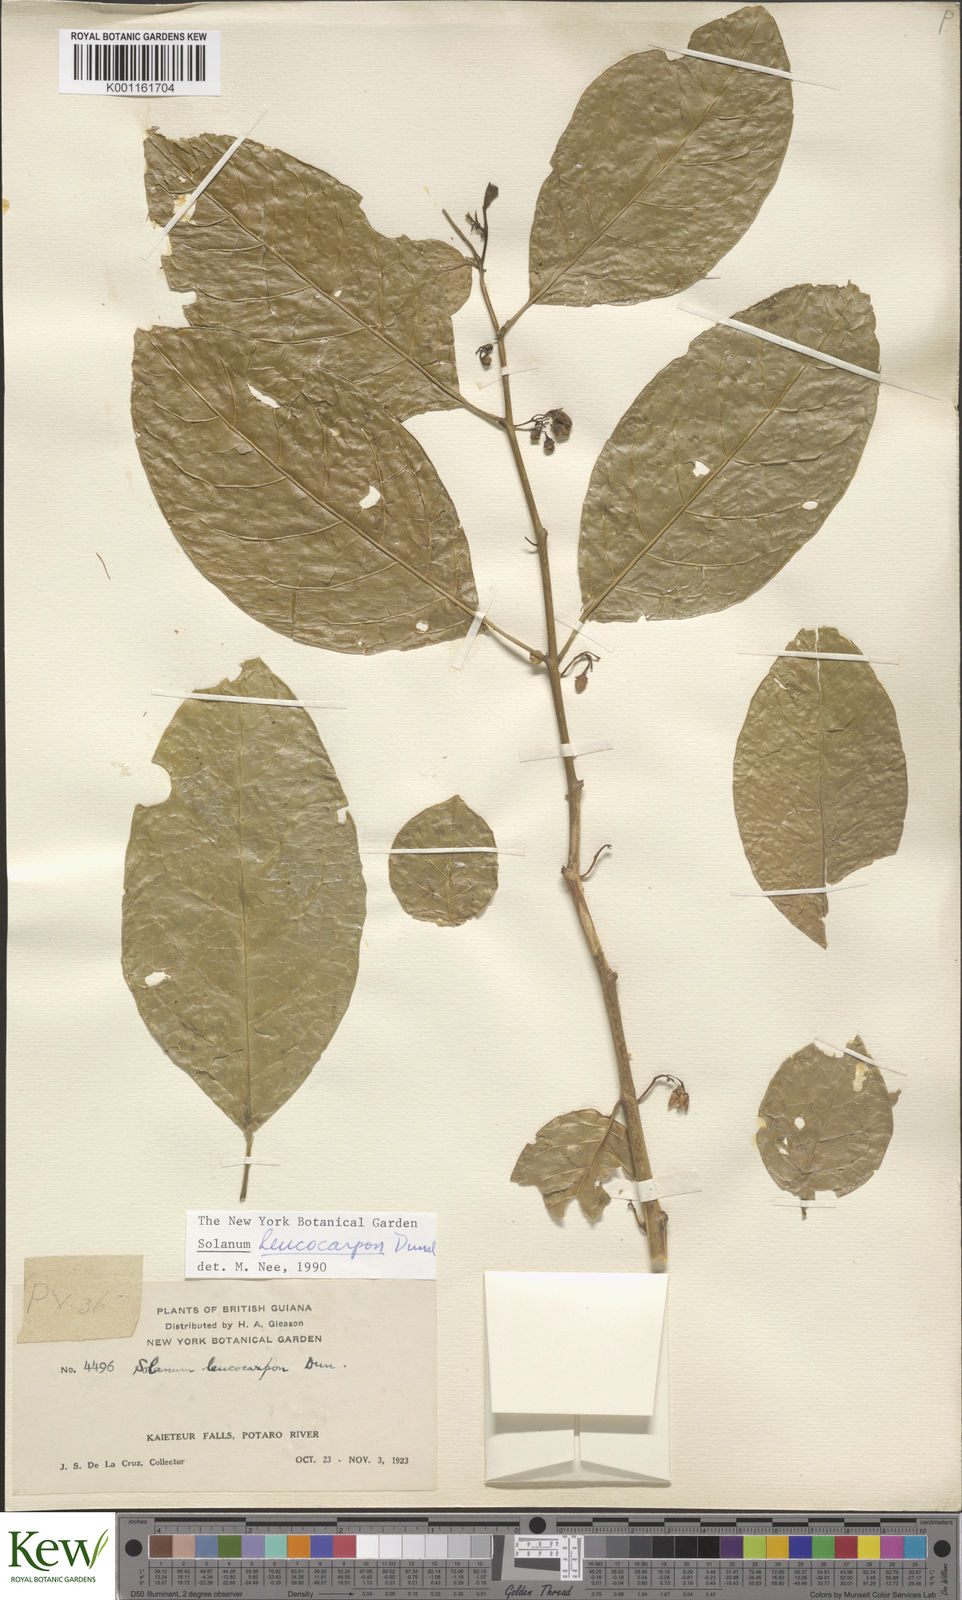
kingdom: Plantae
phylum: Tracheophyta
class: Magnoliopsida
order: Solanales
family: Solanaceae
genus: Solanum
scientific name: Solanum leucocarpon
